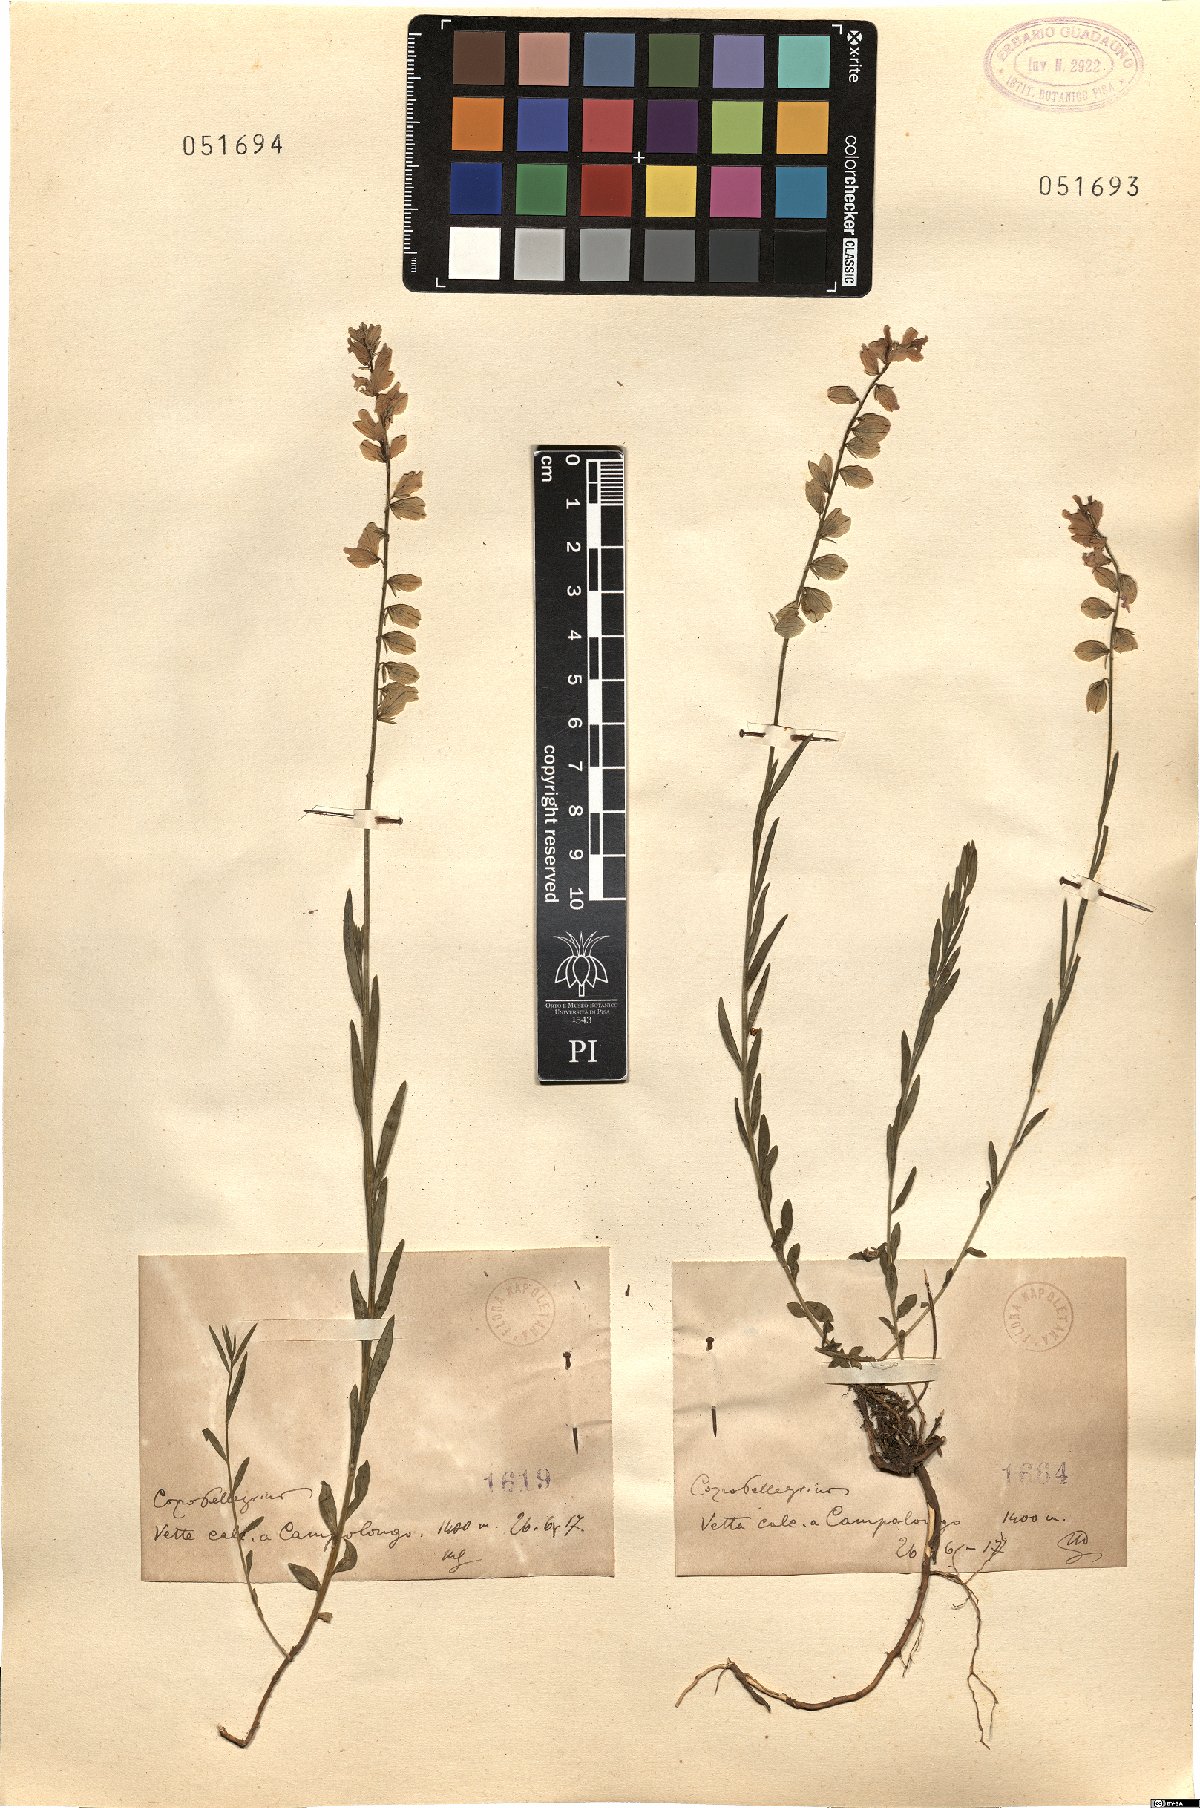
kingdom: Plantae
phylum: Tracheophyta
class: Magnoliopsida
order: Fabales
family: Polygalaceae
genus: Polygala
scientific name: Polygala
